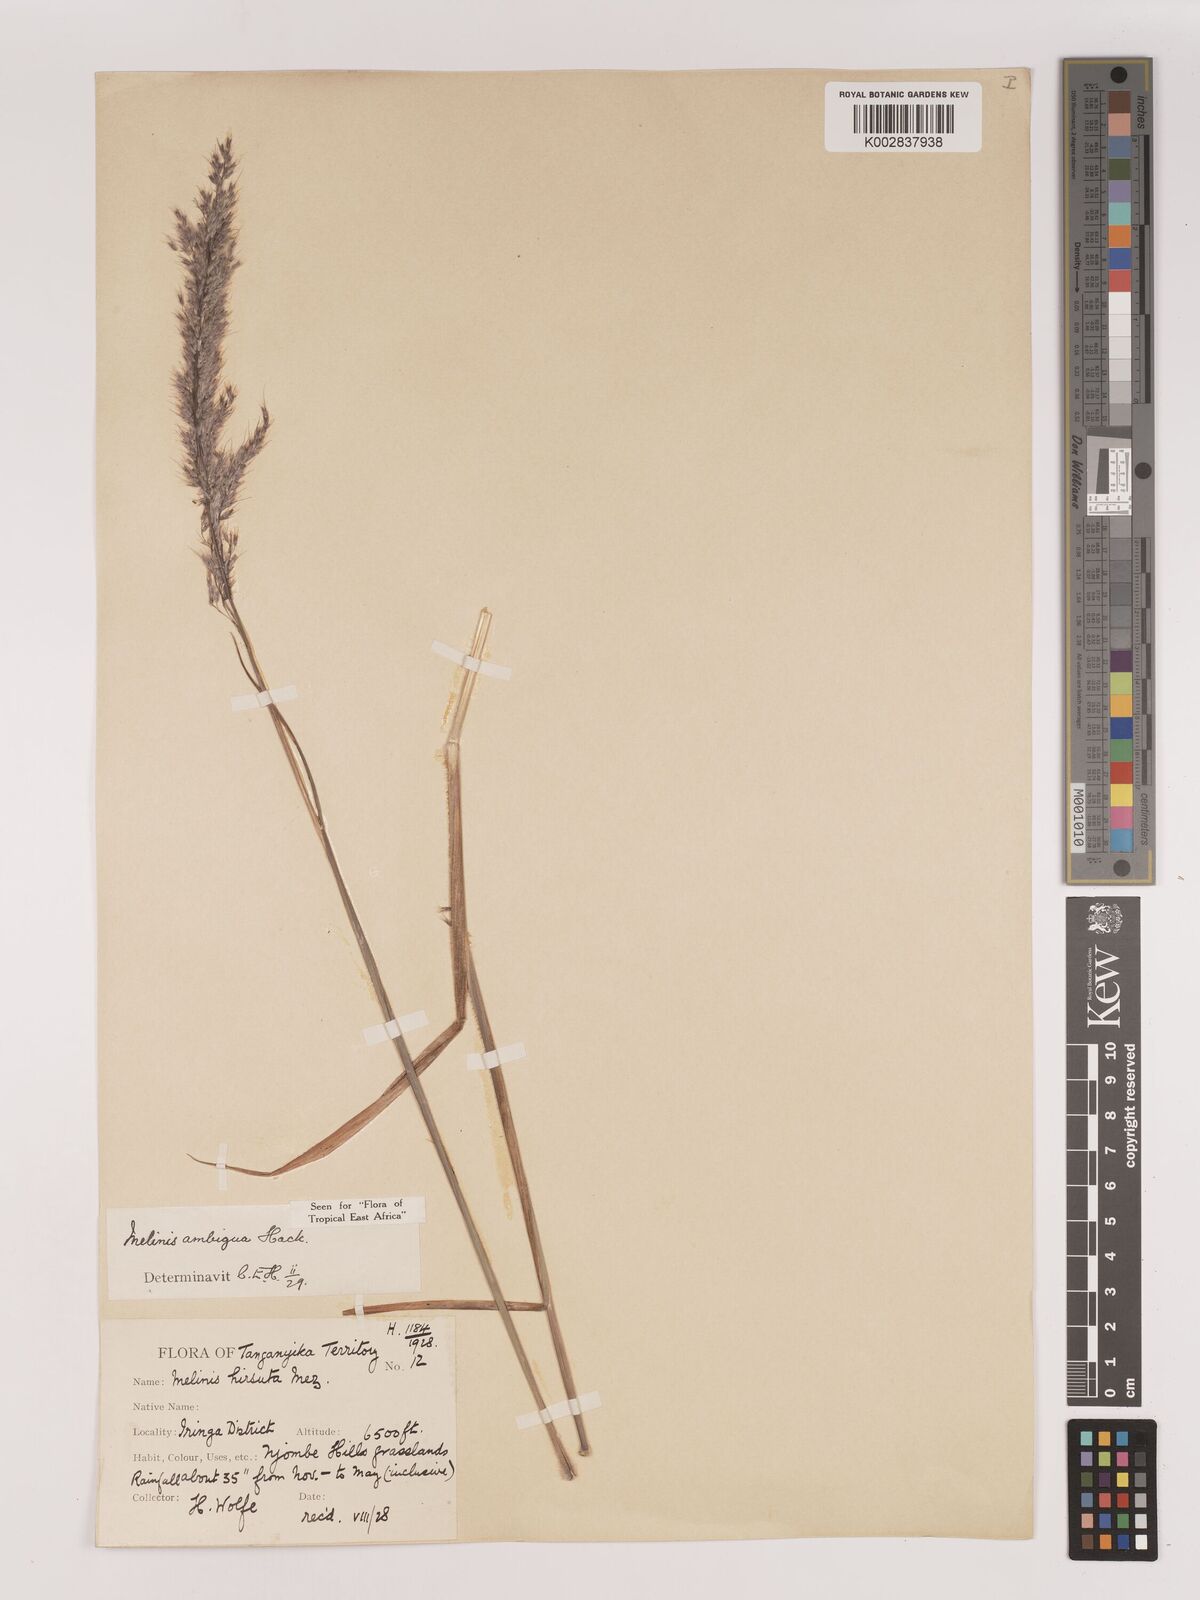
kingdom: Plantae
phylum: Tracheophyta
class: Liliopsida
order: Poales
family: Poaceae
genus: Melinis
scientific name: Melinis ambigua
